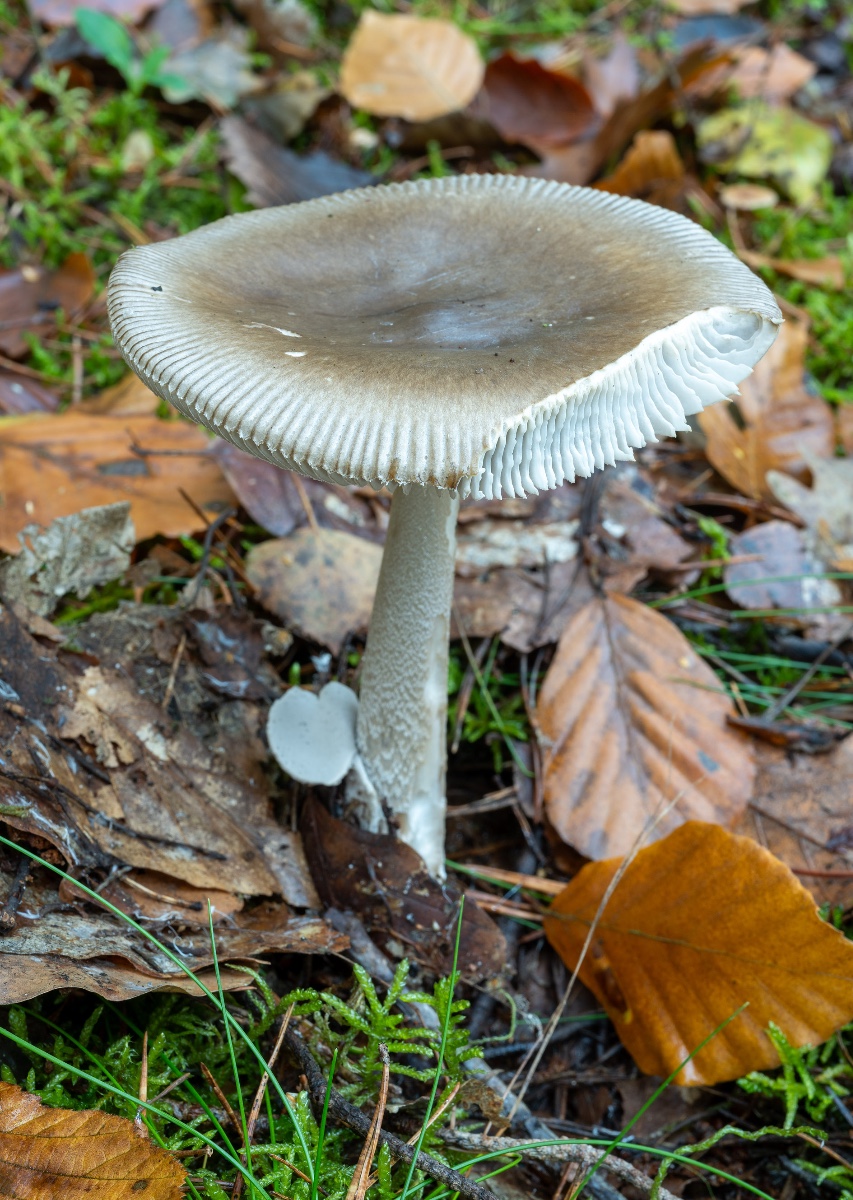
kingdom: Fungi
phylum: Basidiomycota
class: Agaricomycetes
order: Agaricales
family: Amanitaceae
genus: Amanita
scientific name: Amanita submembranacea
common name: gråspættet kam-fluesvamp
